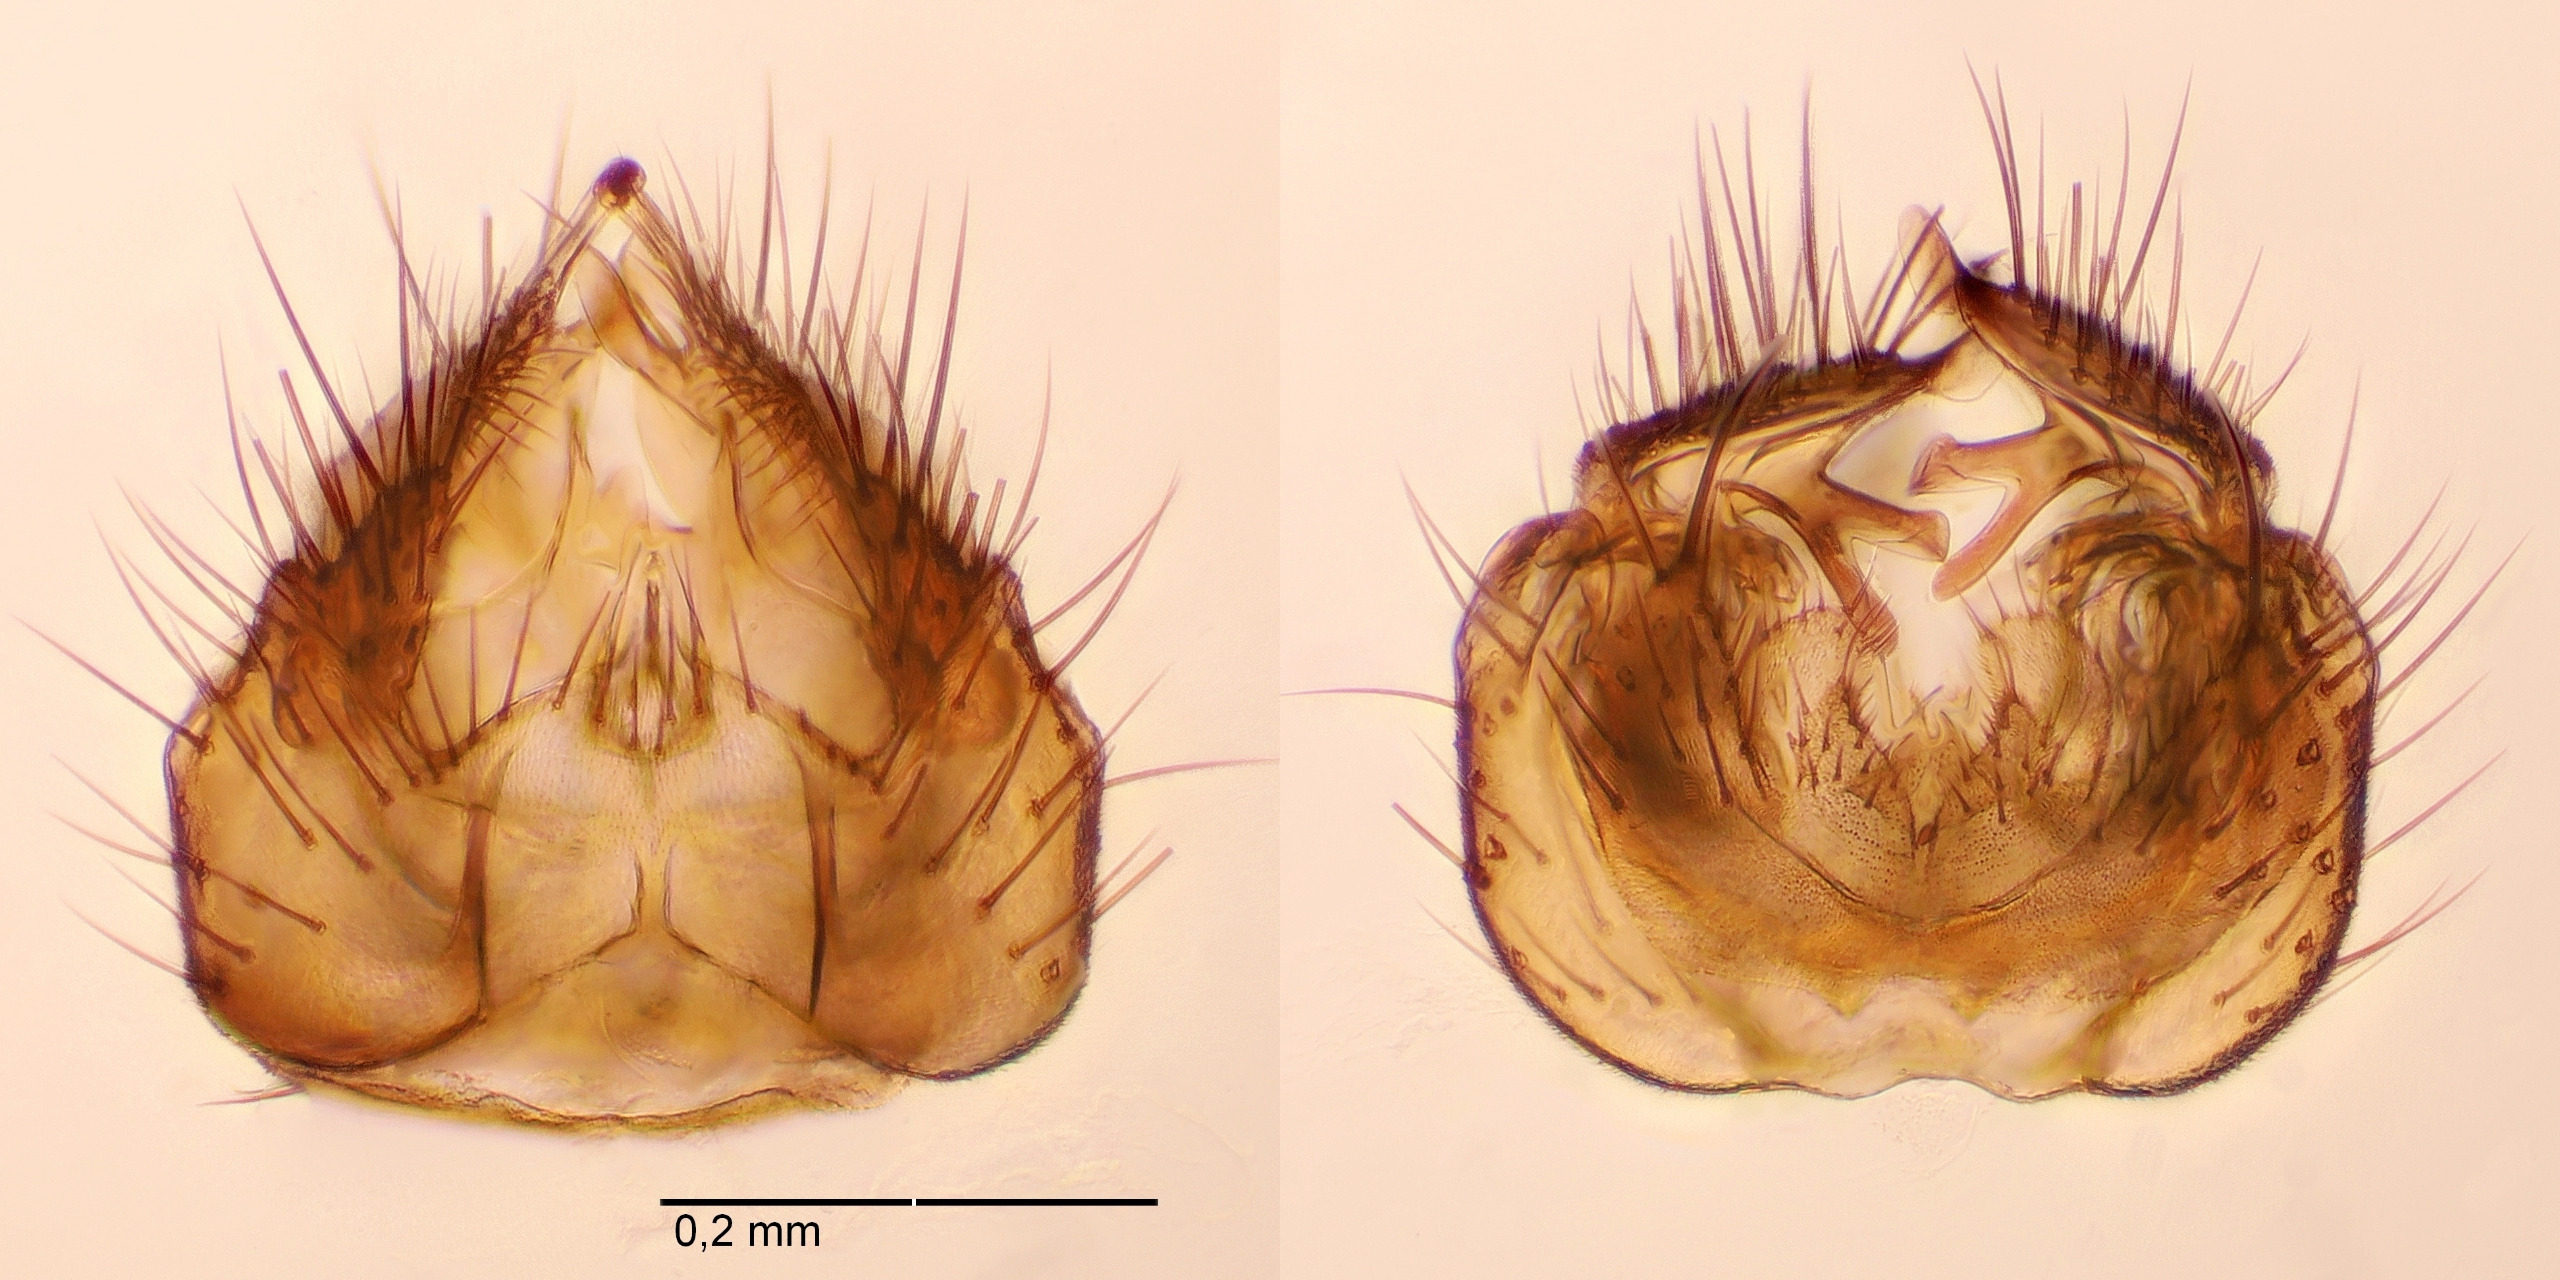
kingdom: Animalia
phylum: Arthropoda
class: Insecta
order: Diptera
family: Mycetophilidae
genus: Anatella
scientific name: Anatella simpatica
